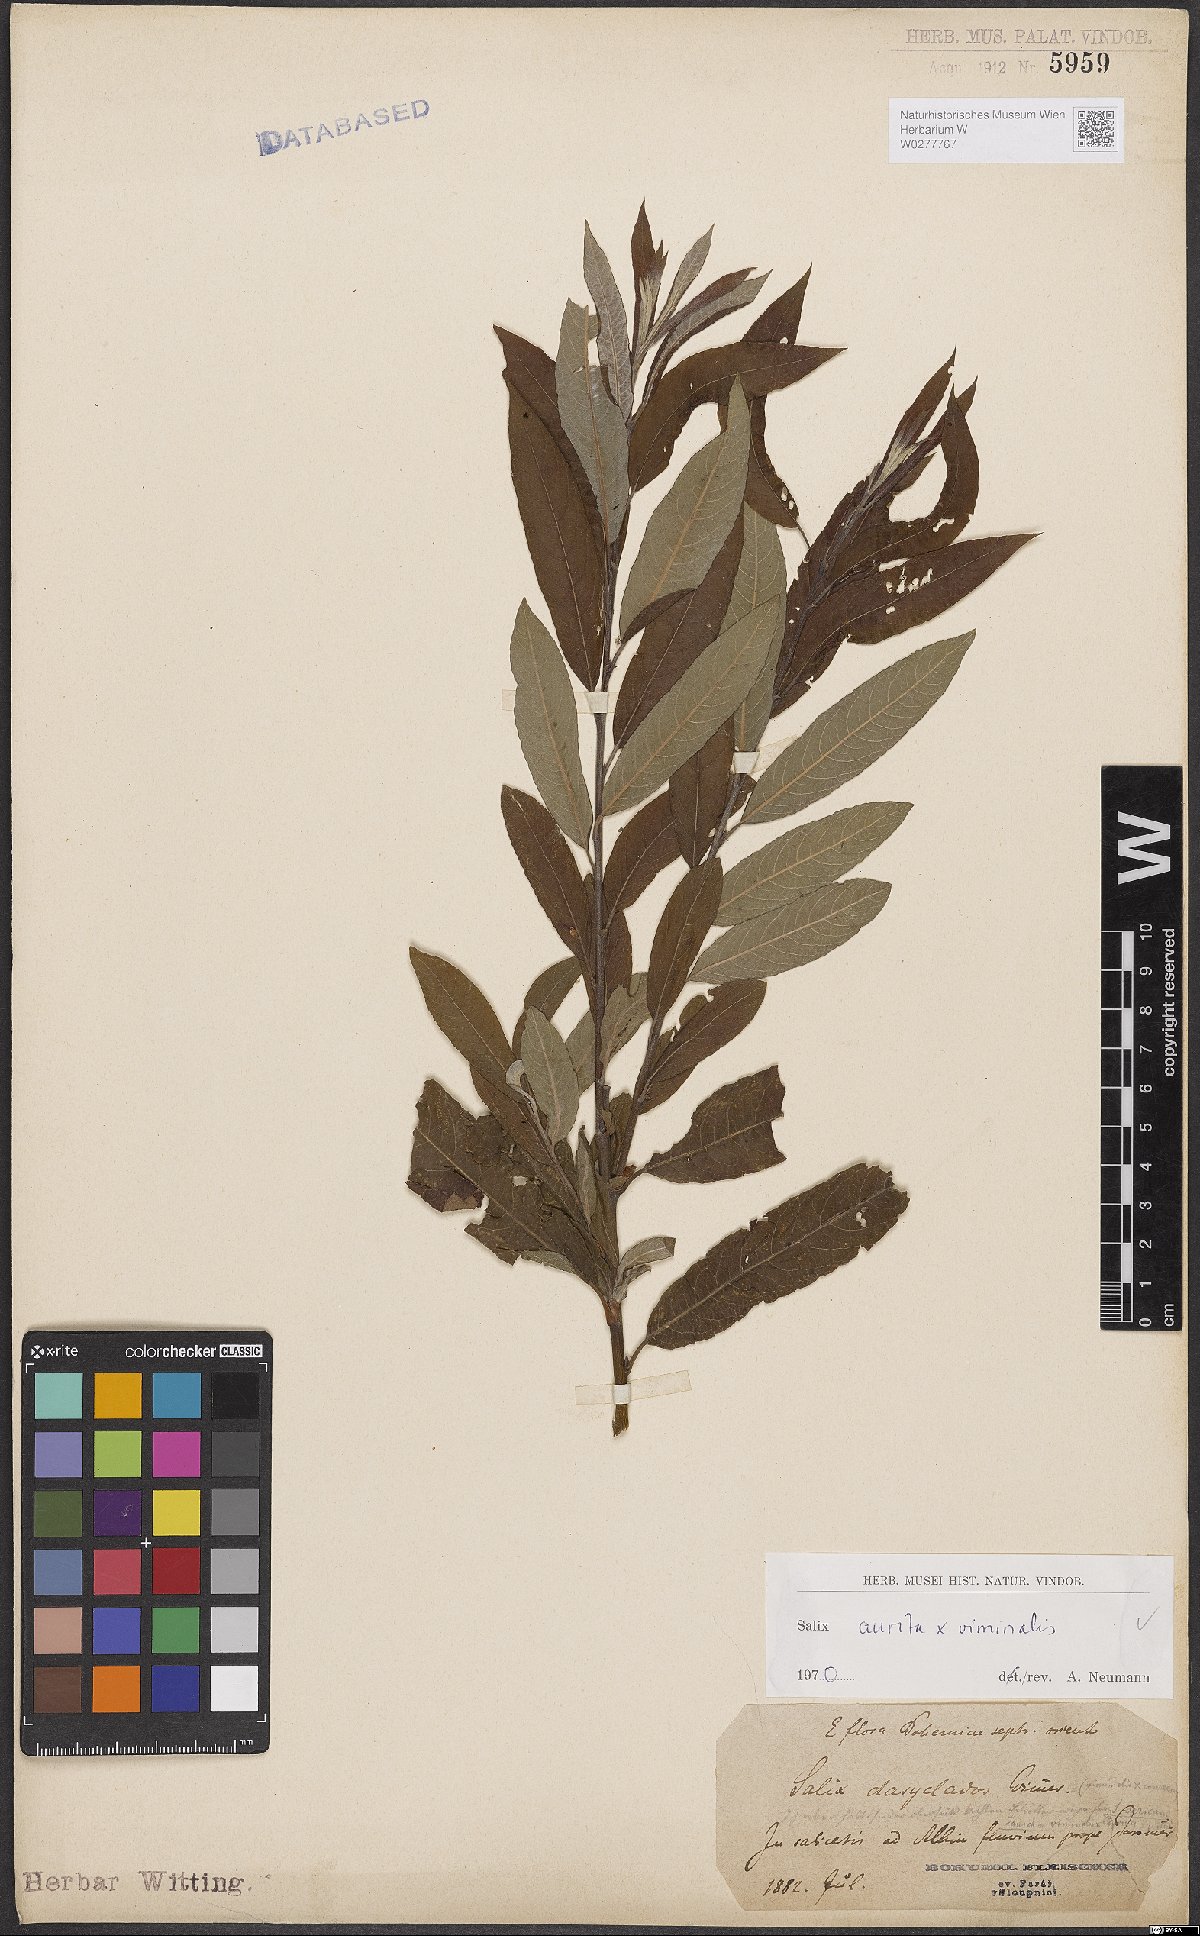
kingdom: Plantae
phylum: Tracheophyta
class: Magnoliopsida
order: Malpighiales
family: Salicaceae
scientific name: Salicaceae
